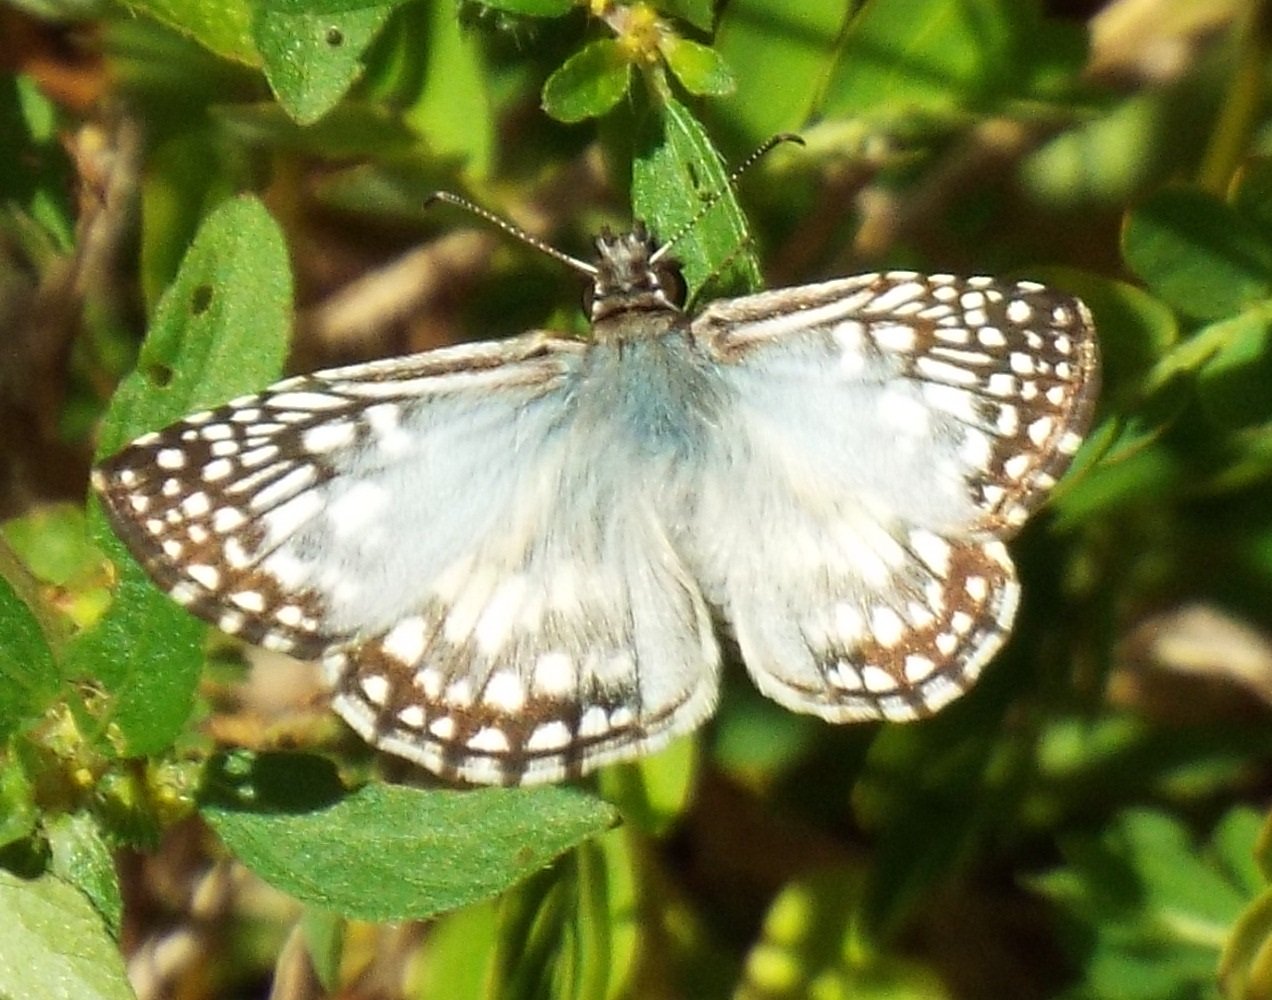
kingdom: Animalia
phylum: Arthropoda
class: Insecta
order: Lepidoptera
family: Hesperiidae
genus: Pyrgus
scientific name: Pyrgus oileus
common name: Tropical Checkered-Skipper
